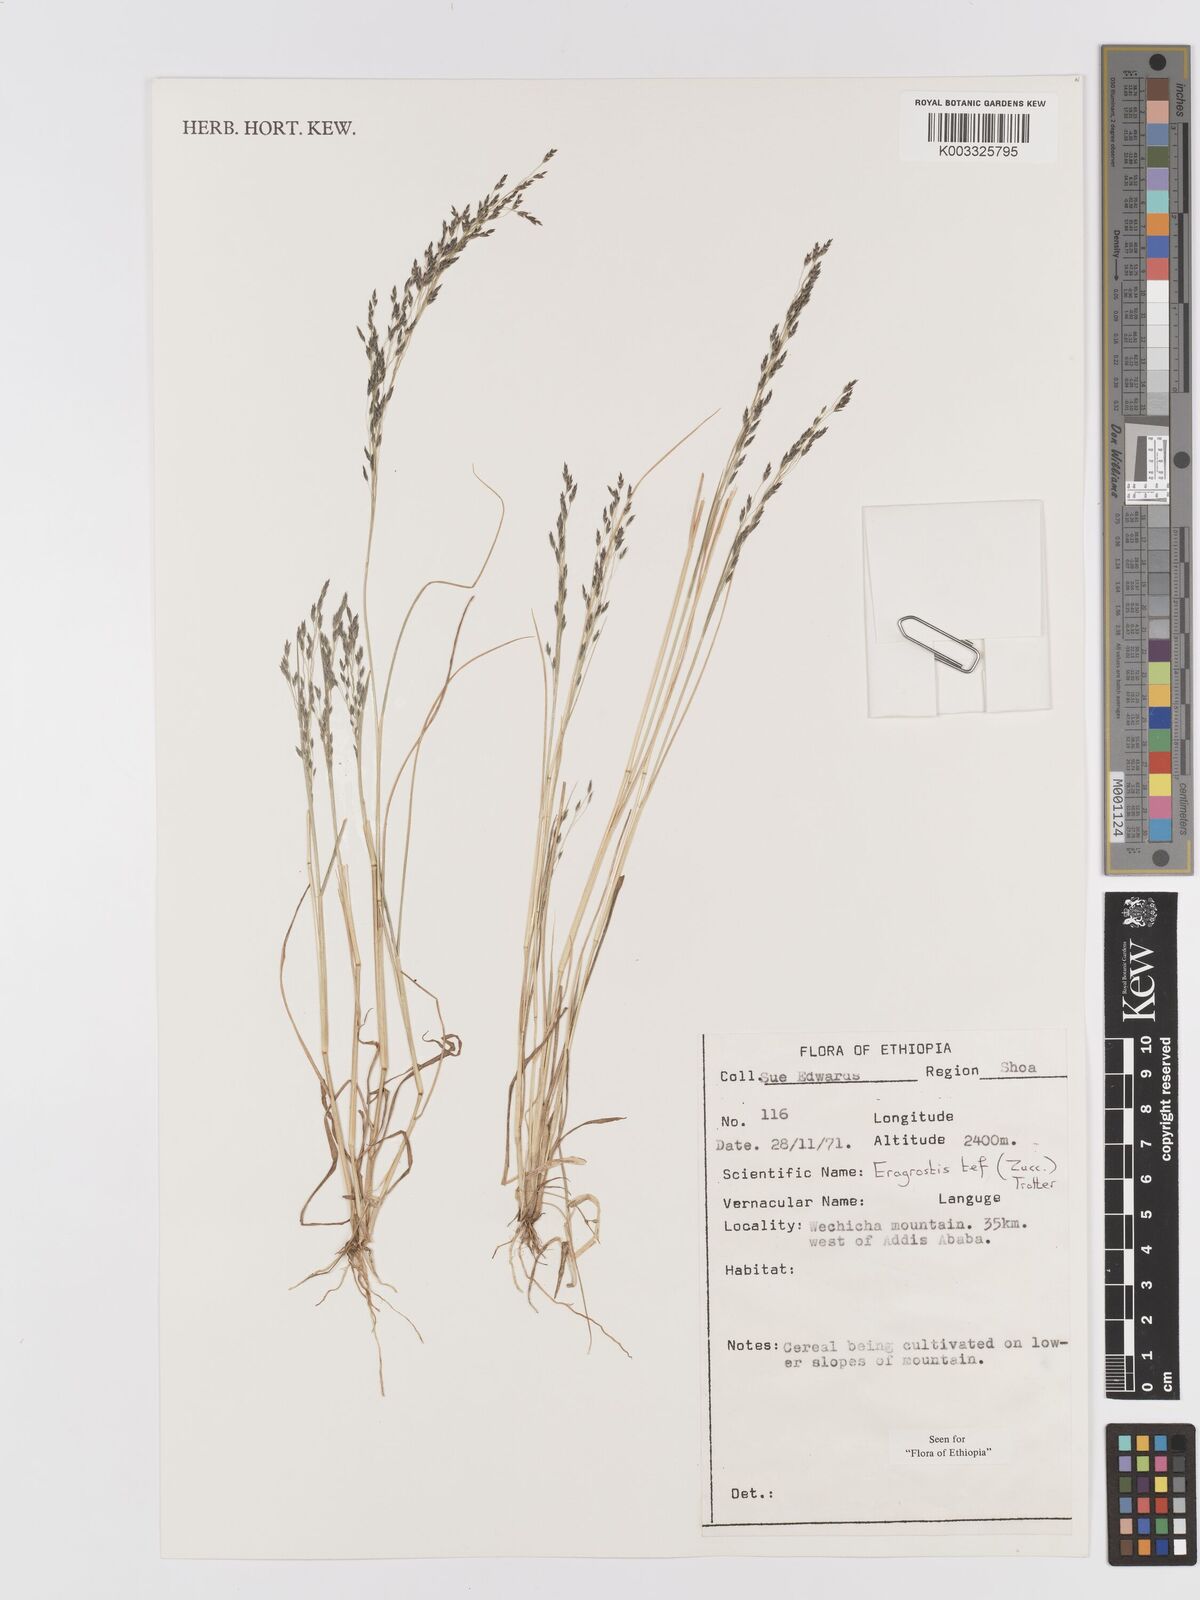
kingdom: Plantae
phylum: Tracheophyta
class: Liliopsida
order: Poales
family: Poaceae
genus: Eragrostis
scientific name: Eragrostis tef
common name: Teff
